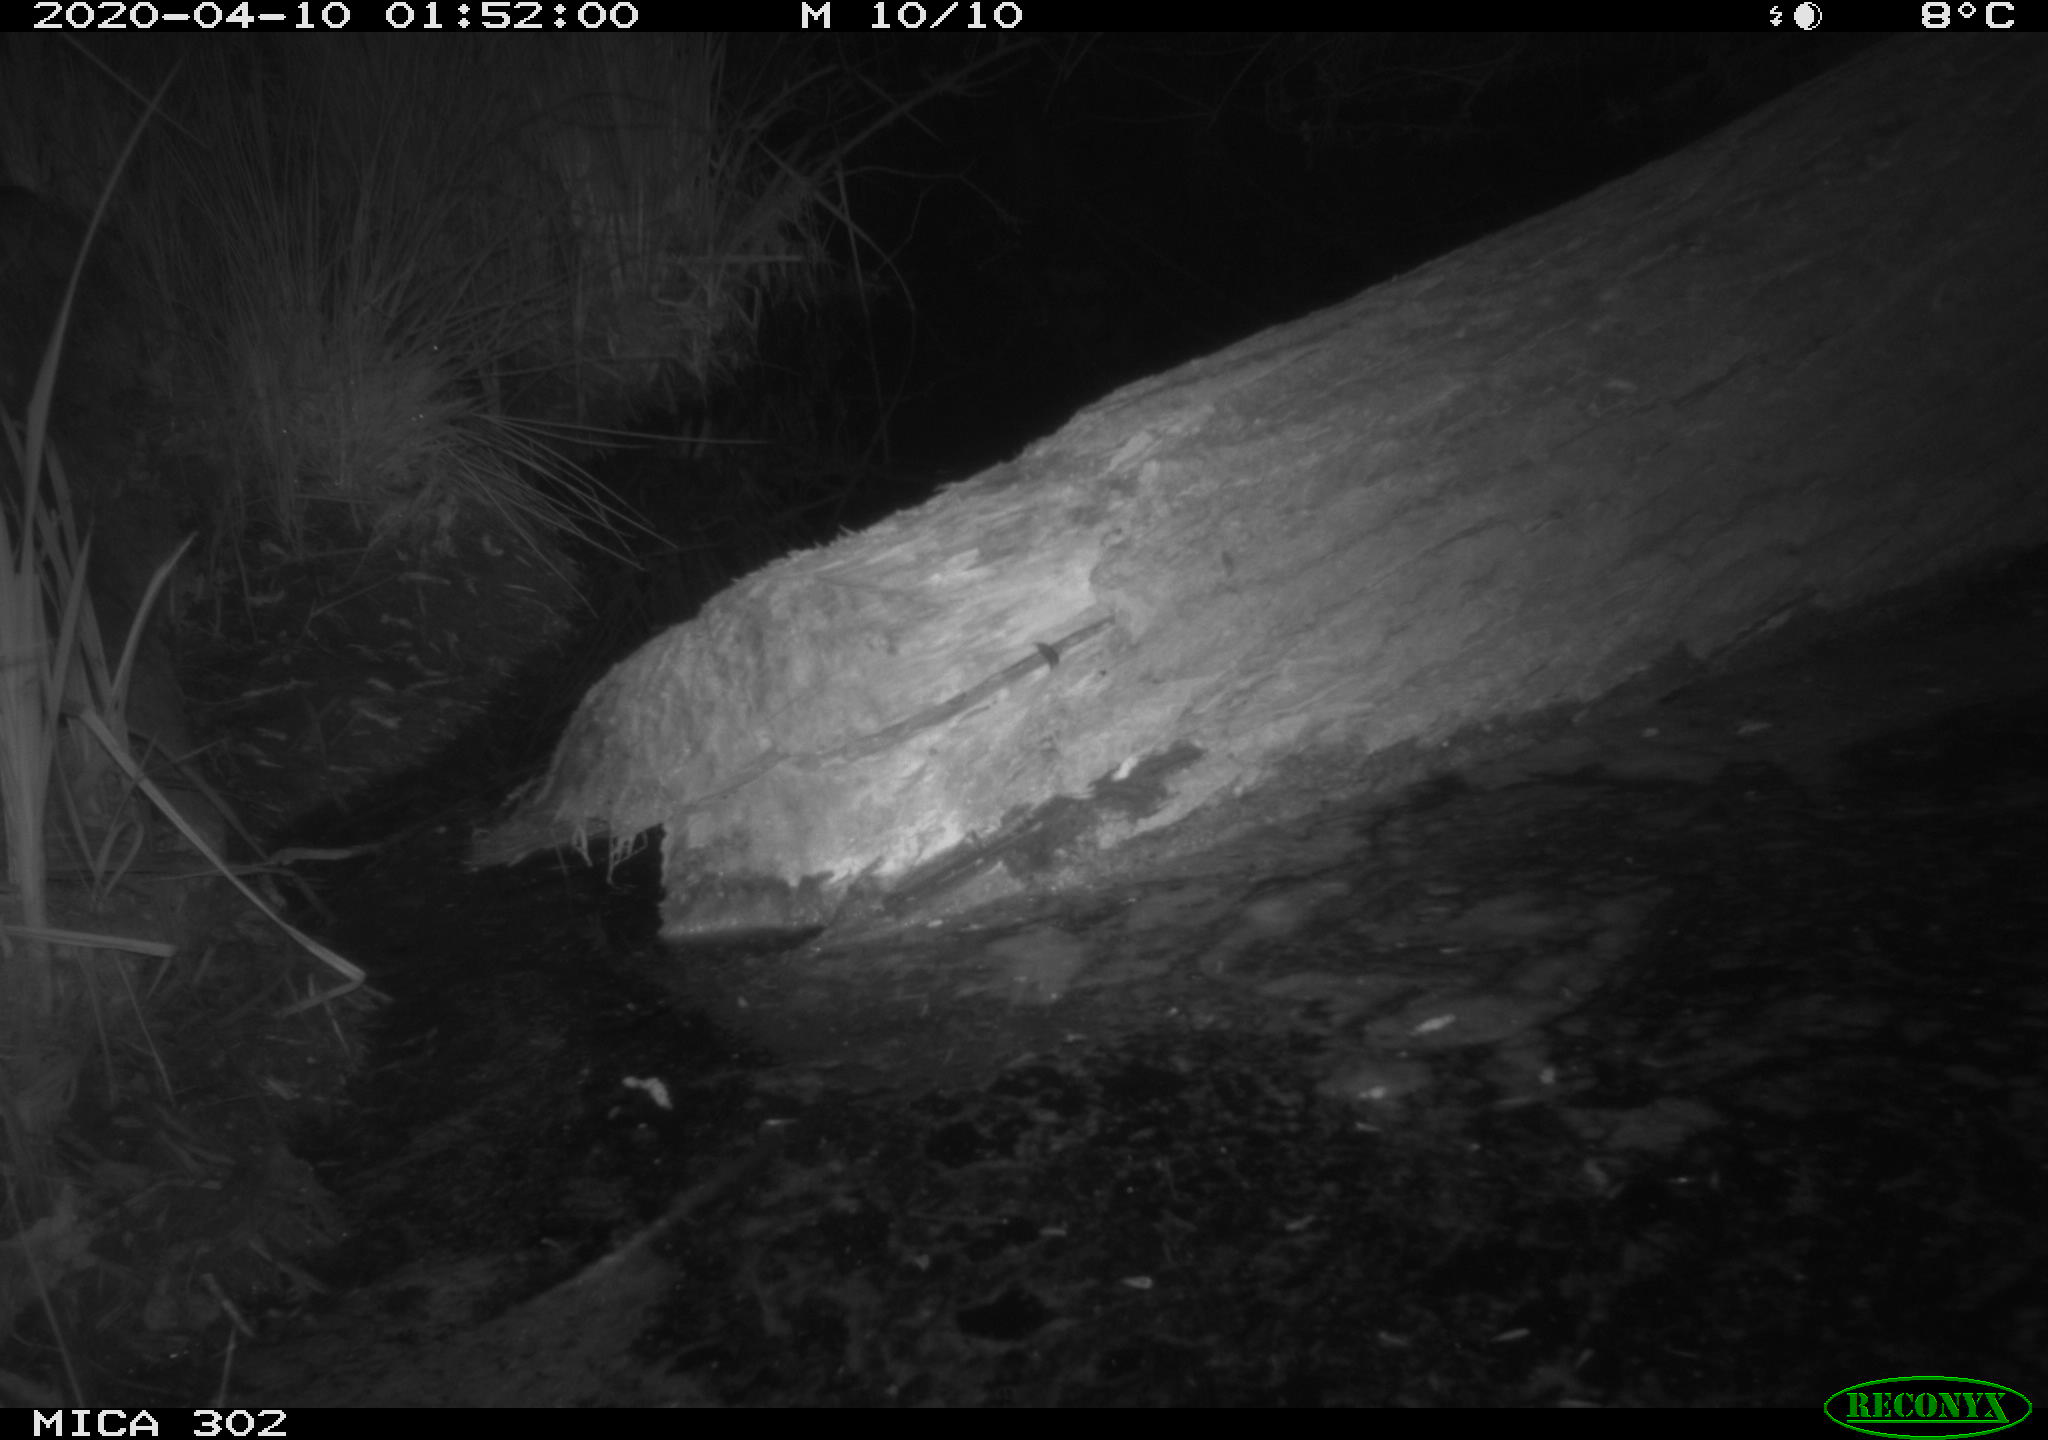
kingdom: Animalia
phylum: Chordata
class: Mammalia
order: Carnivora
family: Canidae
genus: Vulpes
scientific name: Vulpes vulpes
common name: Red fox
